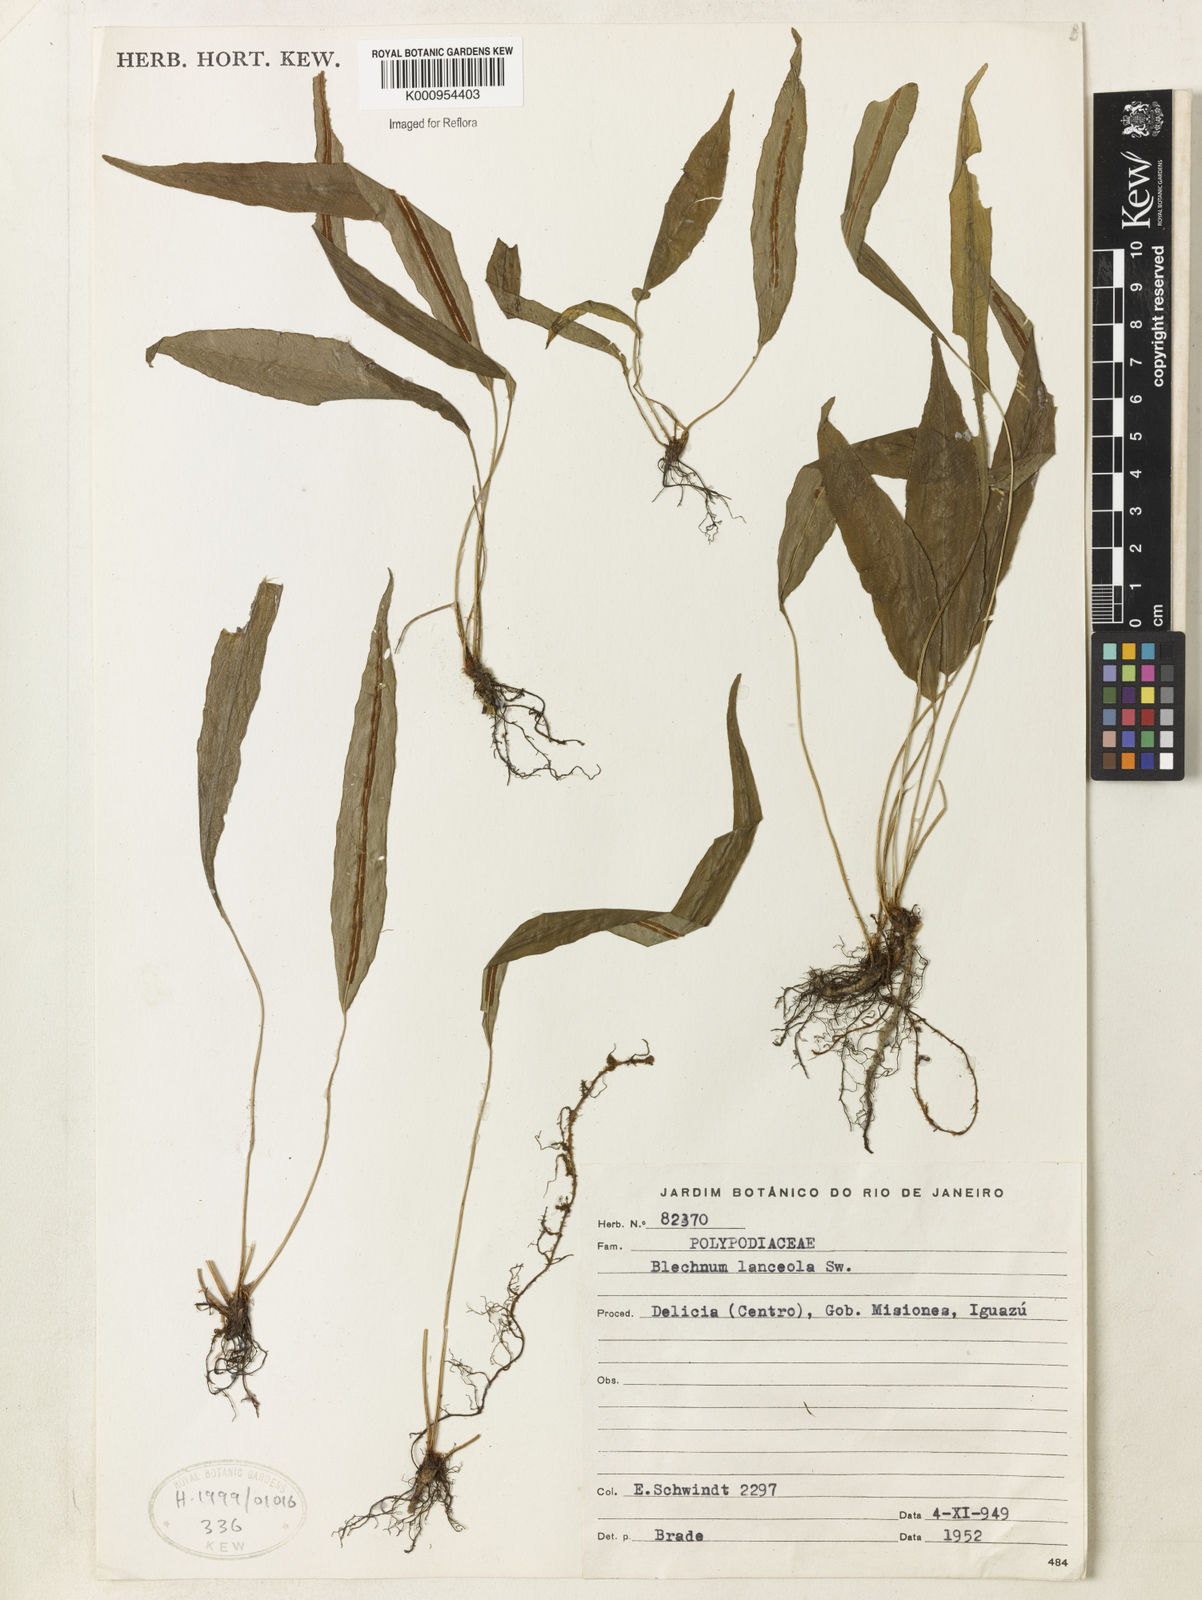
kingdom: Plantae
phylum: Tracheophyta
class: Polypodiopsida
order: Polypodiales
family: Blechnaceae
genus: Blechnum
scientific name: Blechnum lanceola
